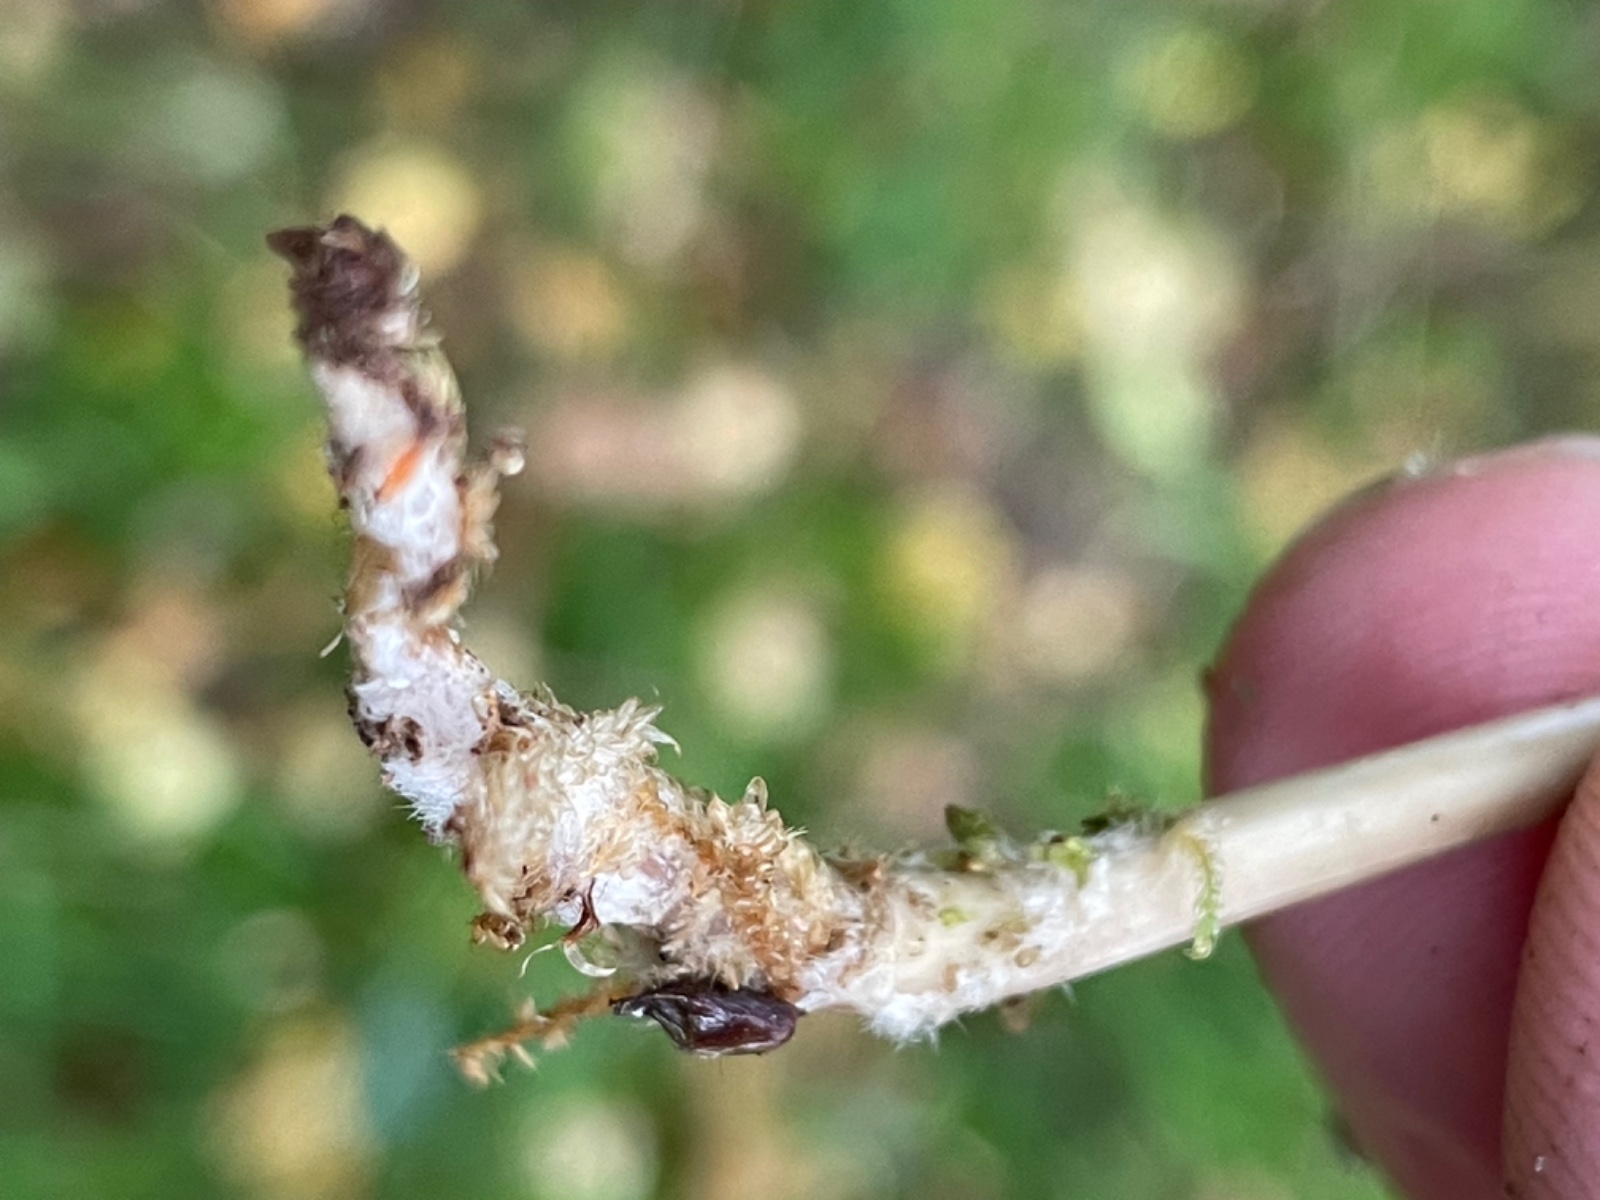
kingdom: Fungi
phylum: Basidiomycota
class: Agaricomycetes
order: Agaricales
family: Mycenaceae
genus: Mycena
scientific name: Mycena galericulata
